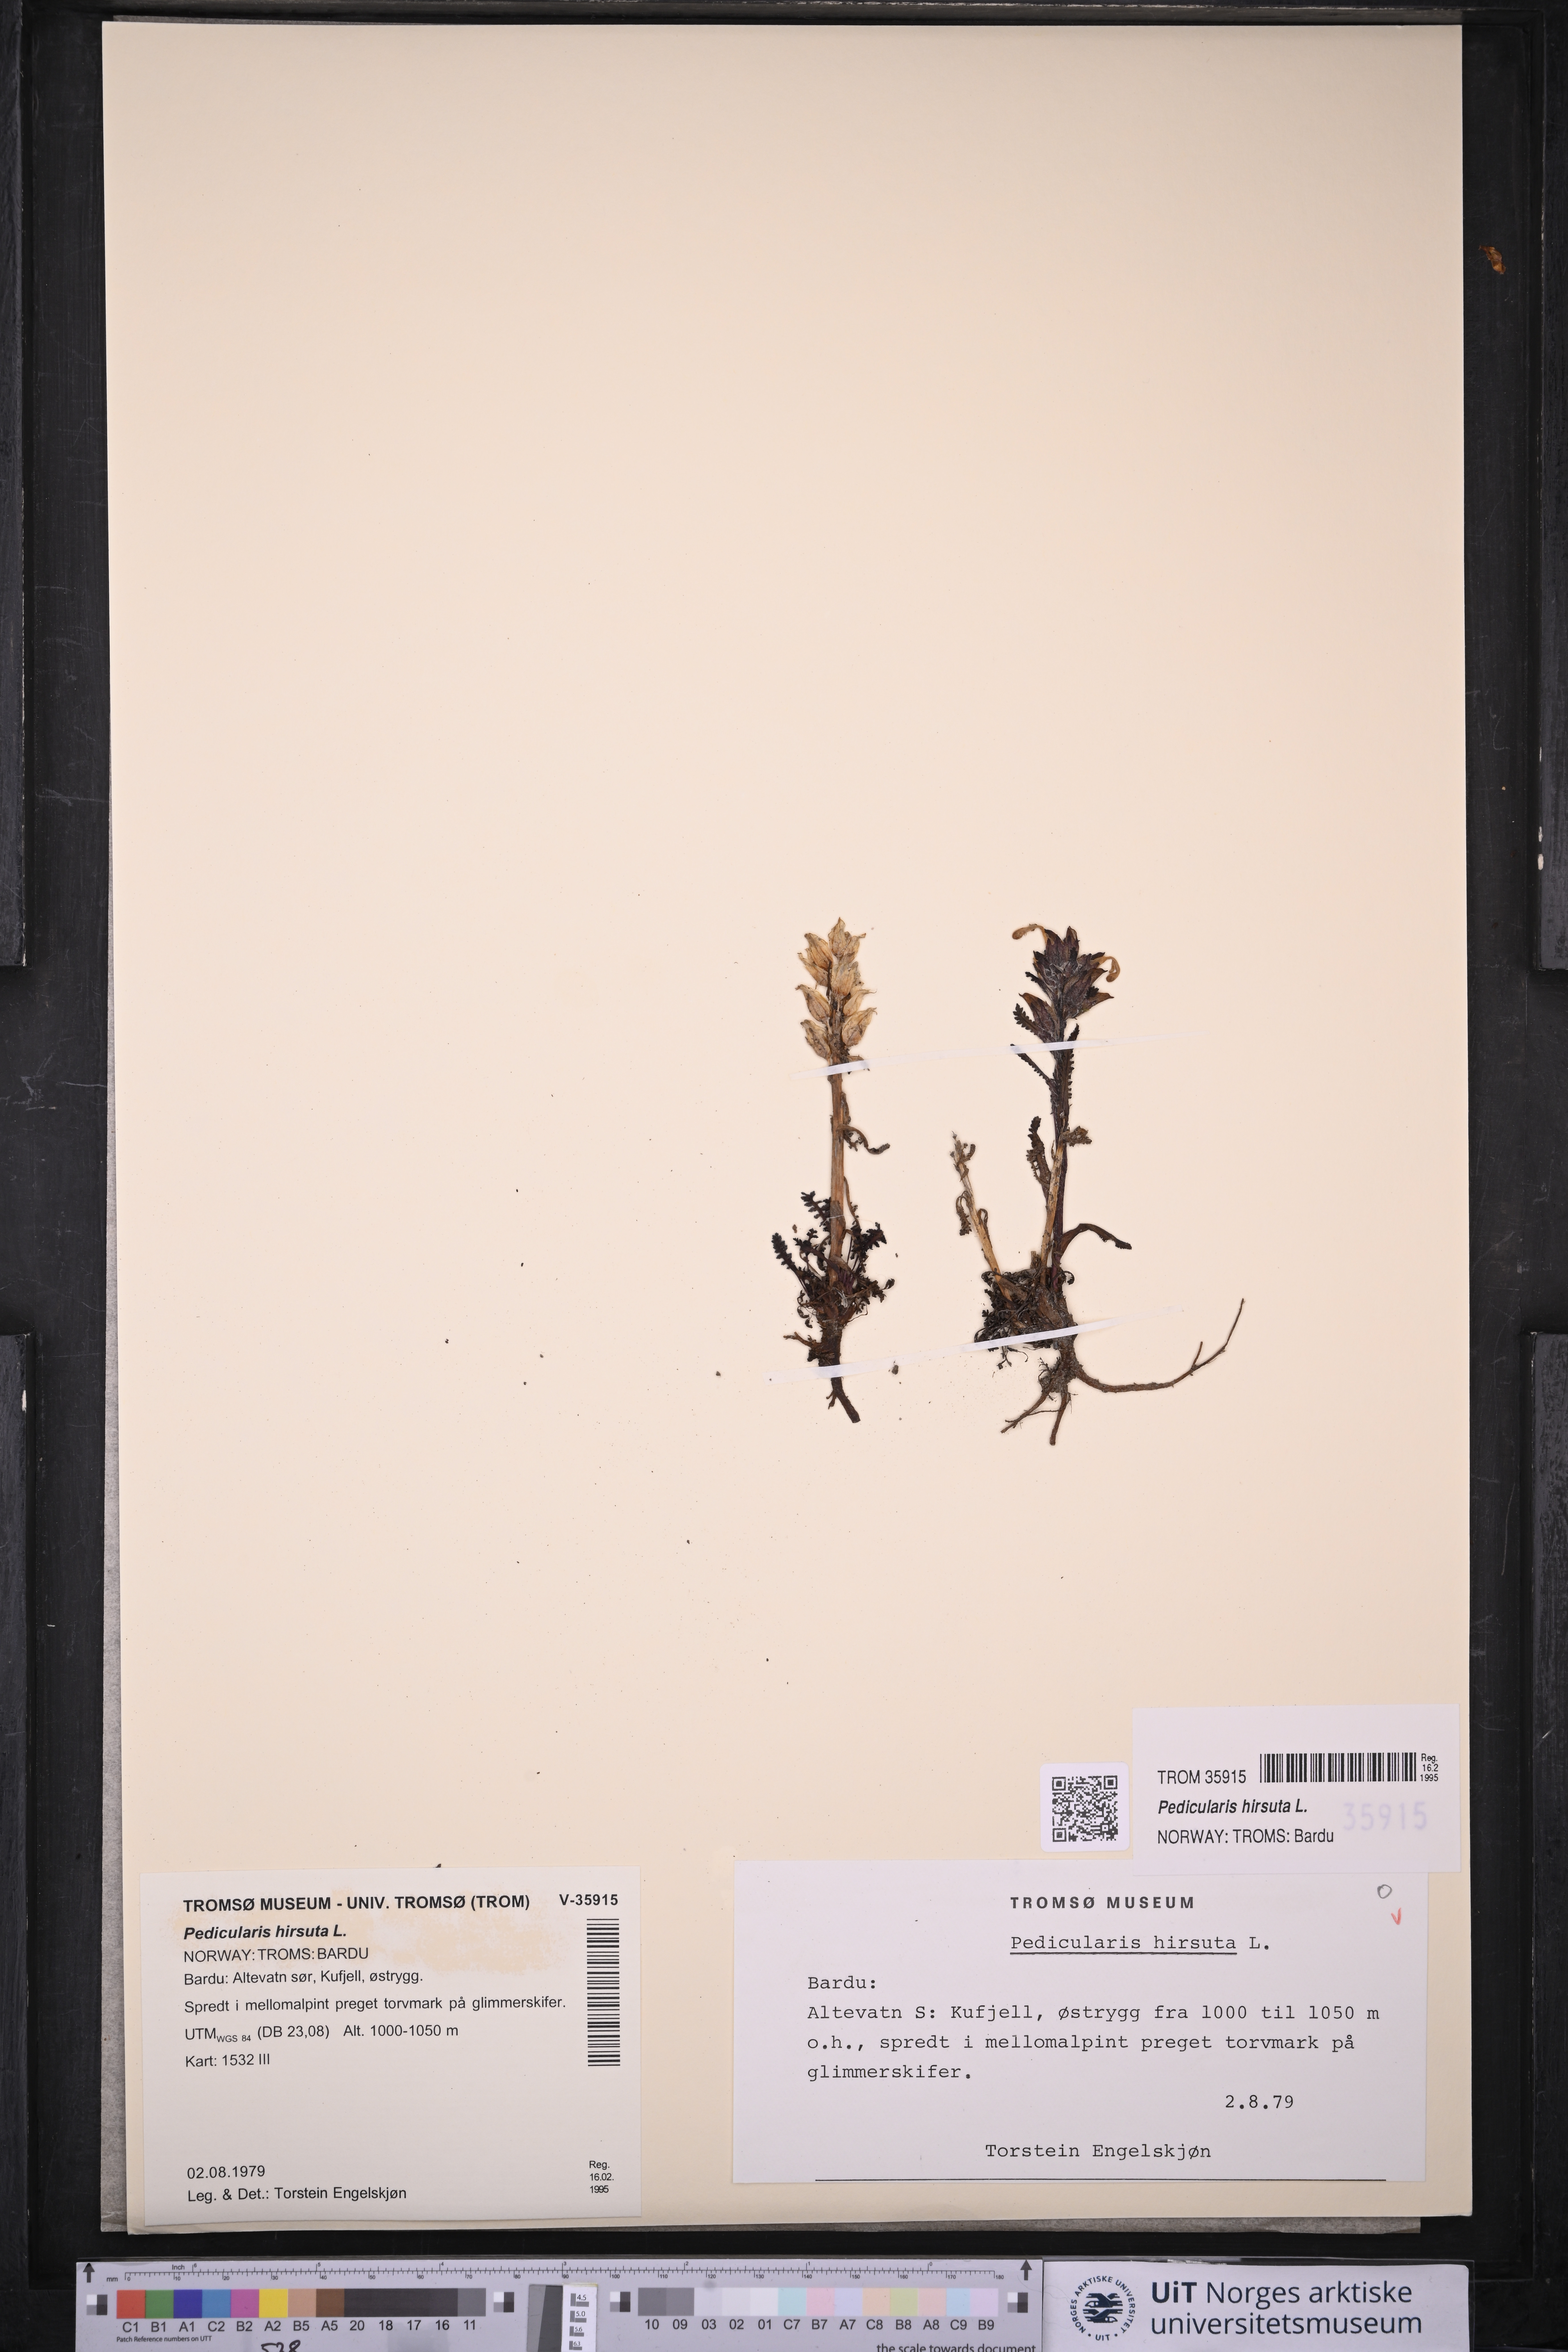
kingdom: Plantae
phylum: Tracheophyta
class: Magnoliopsida
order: Lamiales
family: Orobanchaceae
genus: Pedicularis
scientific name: Pedicularis hirsuta
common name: Hairy lousewort
